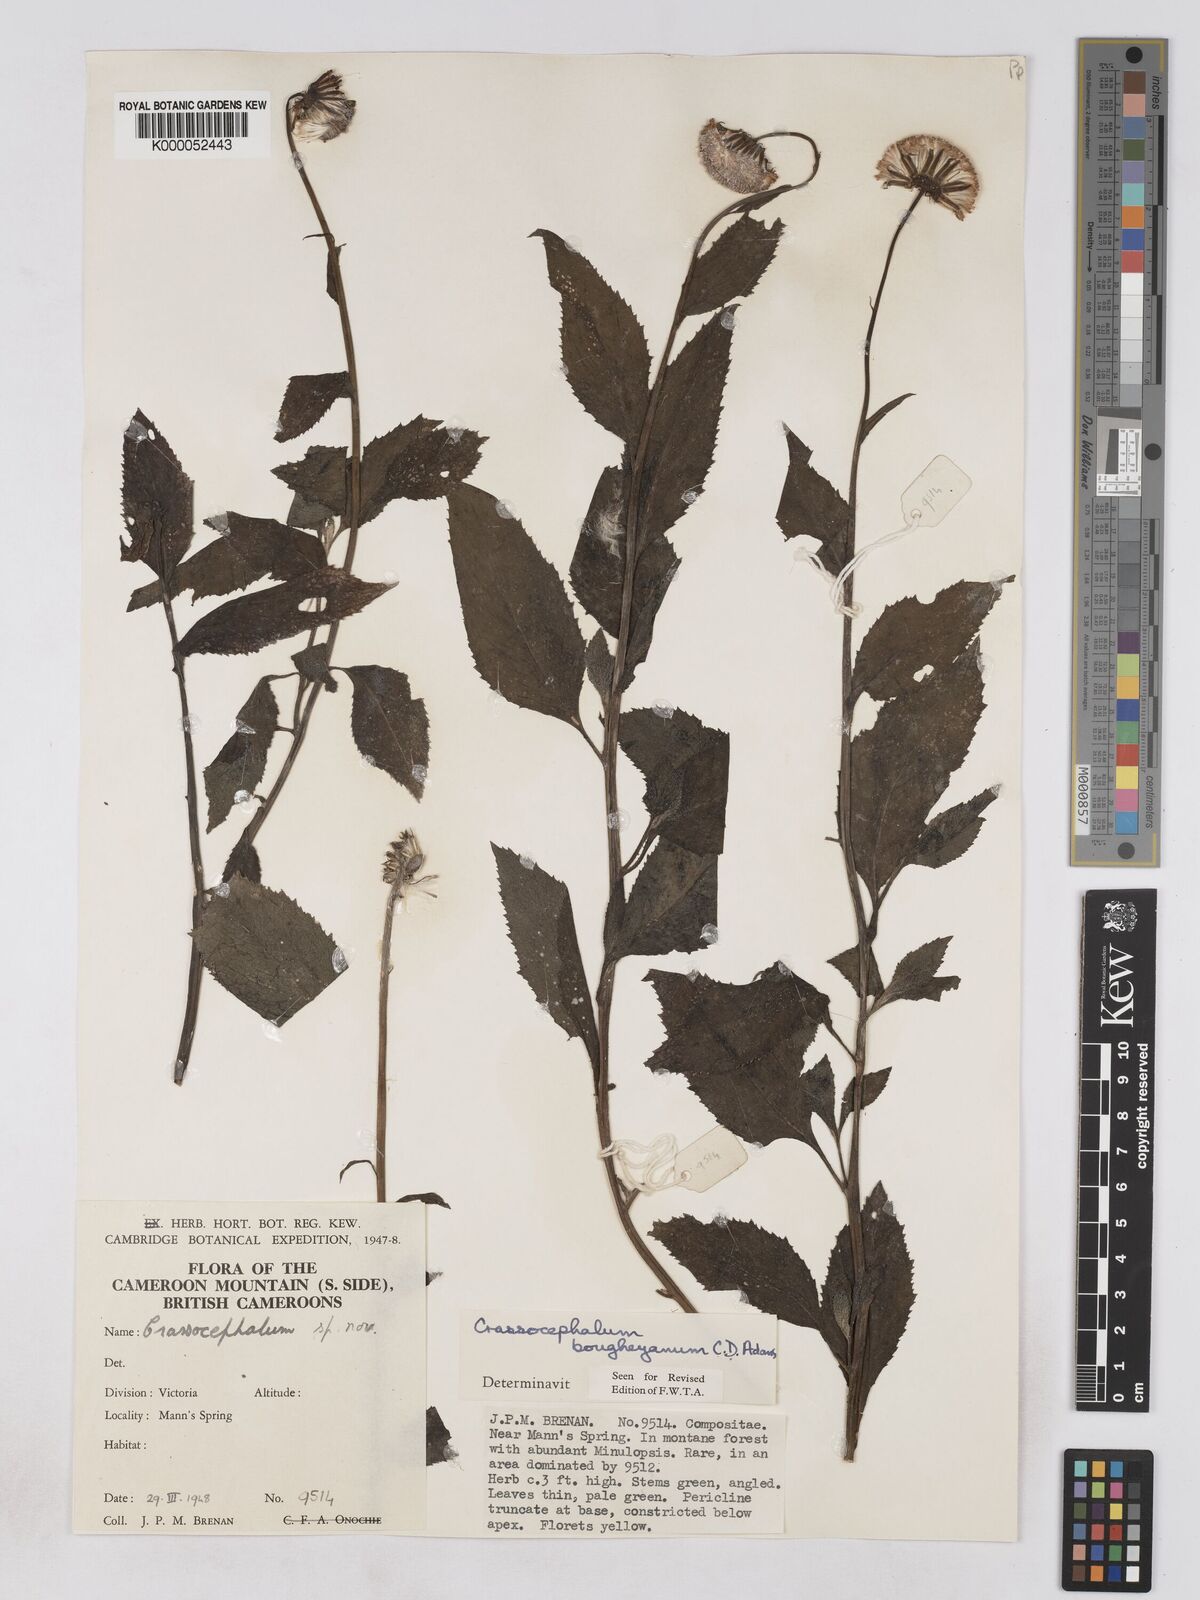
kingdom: Plantae
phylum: Tracheophyta
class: Magnoliopsida
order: Asterales
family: Asteraceae
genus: Crassocephalum
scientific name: Crassocephalum bougheyanum
